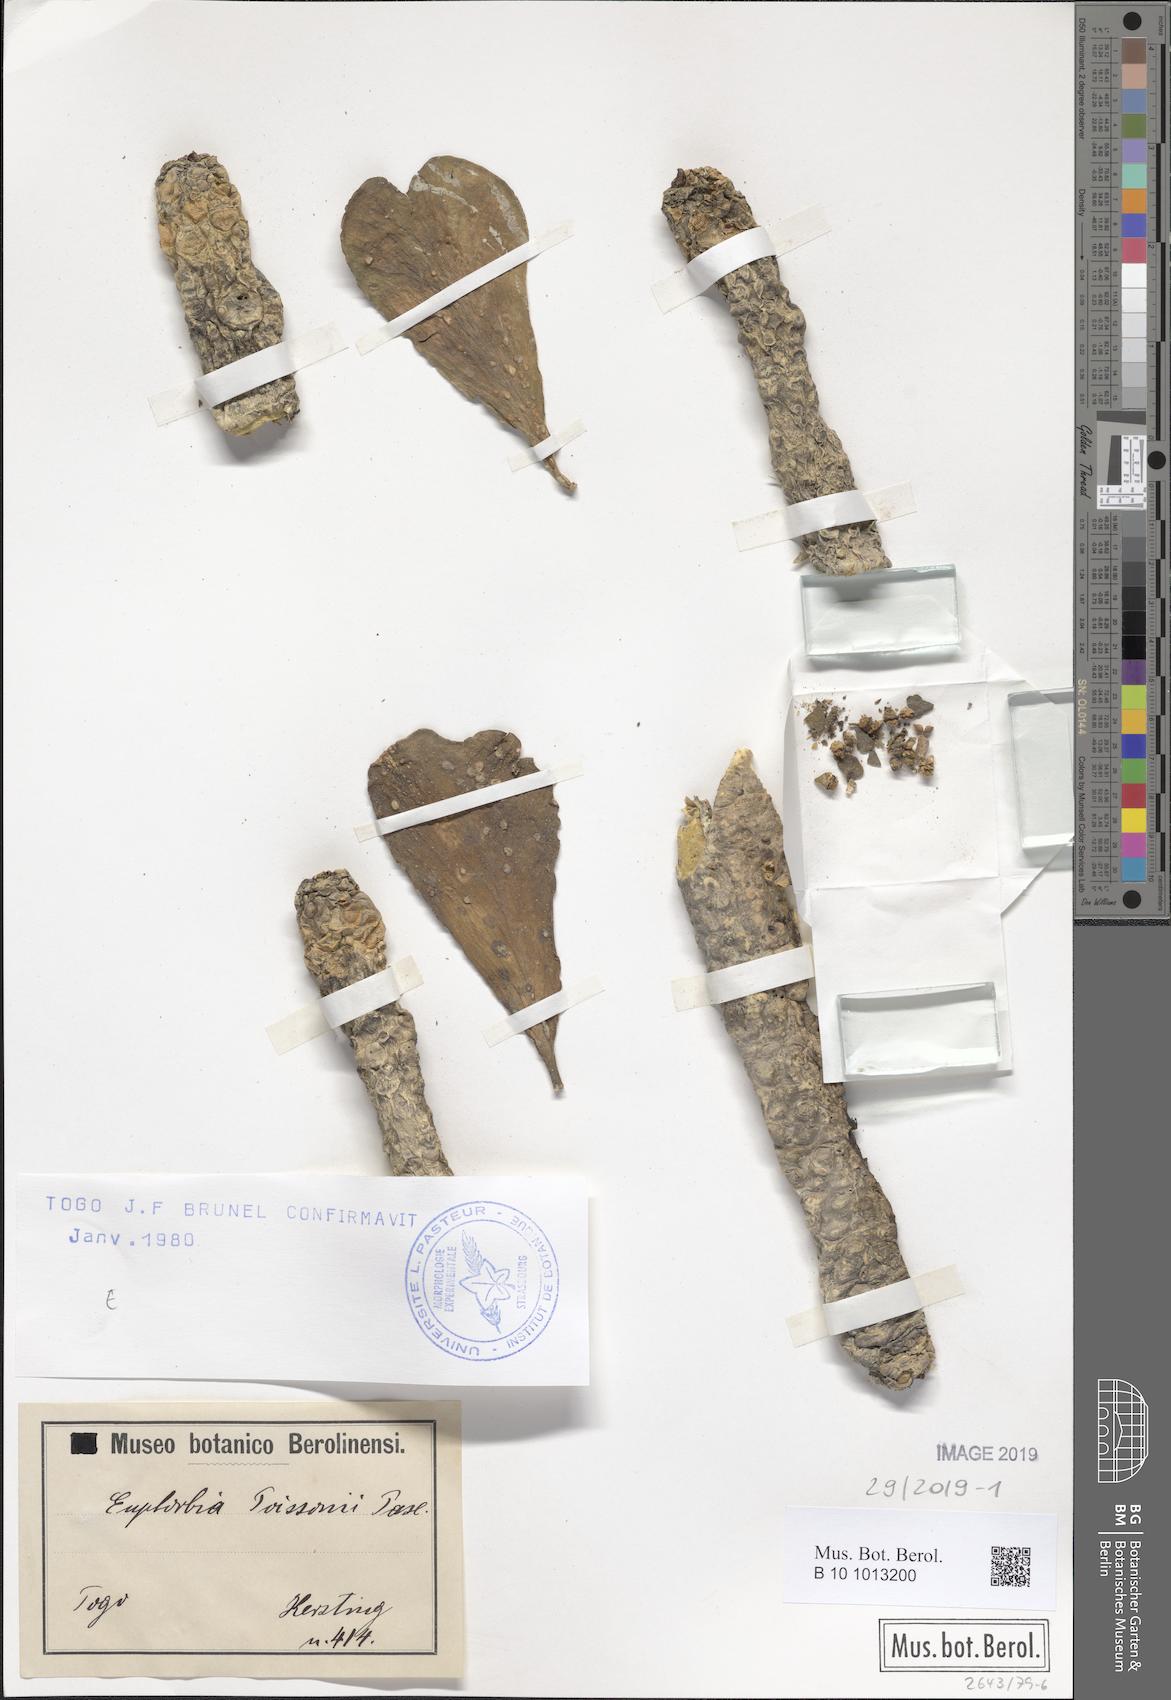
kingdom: Plantae
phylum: Tracheophyta
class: Magnoliopsida
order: Malpighiales
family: Euphorbiaceae
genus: Euphorbia
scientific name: Euphorbia poissonii
